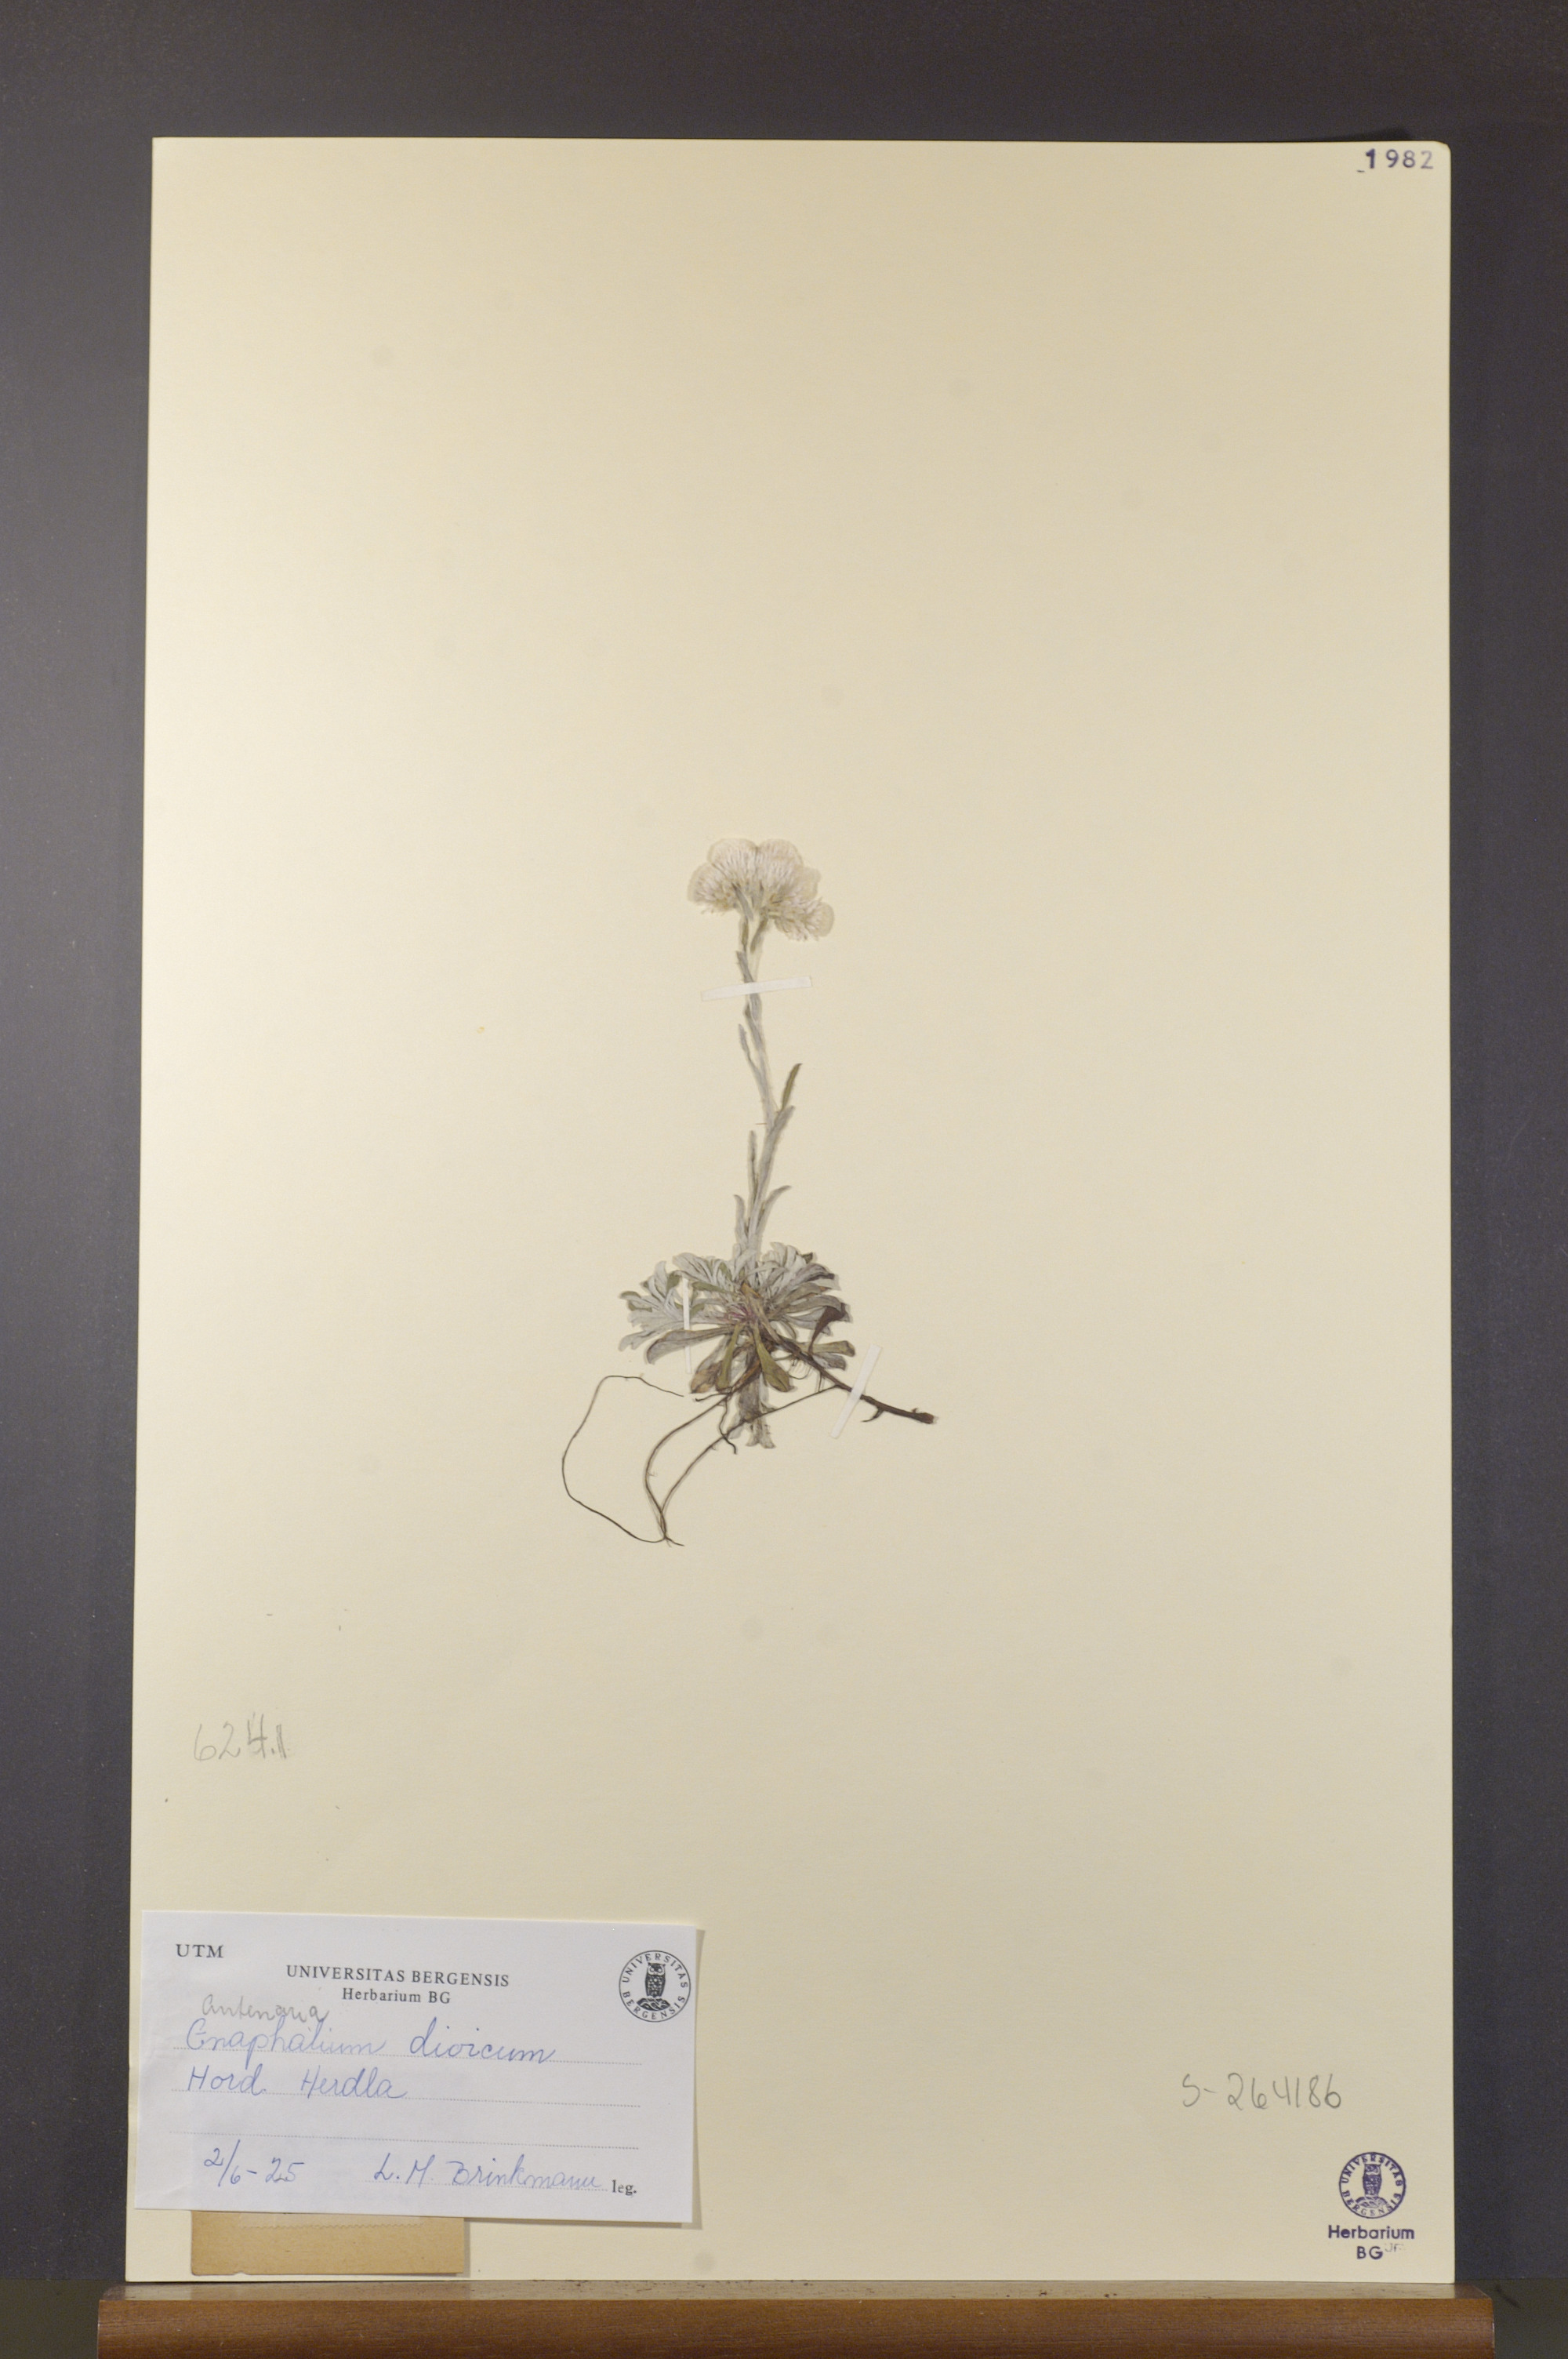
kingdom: Plantae
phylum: Tracheophyta
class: Magnoliopsida
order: Asterales
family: Asteraceae
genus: Antennaria
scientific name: Antennaria dioica
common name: Mountain everlasting
